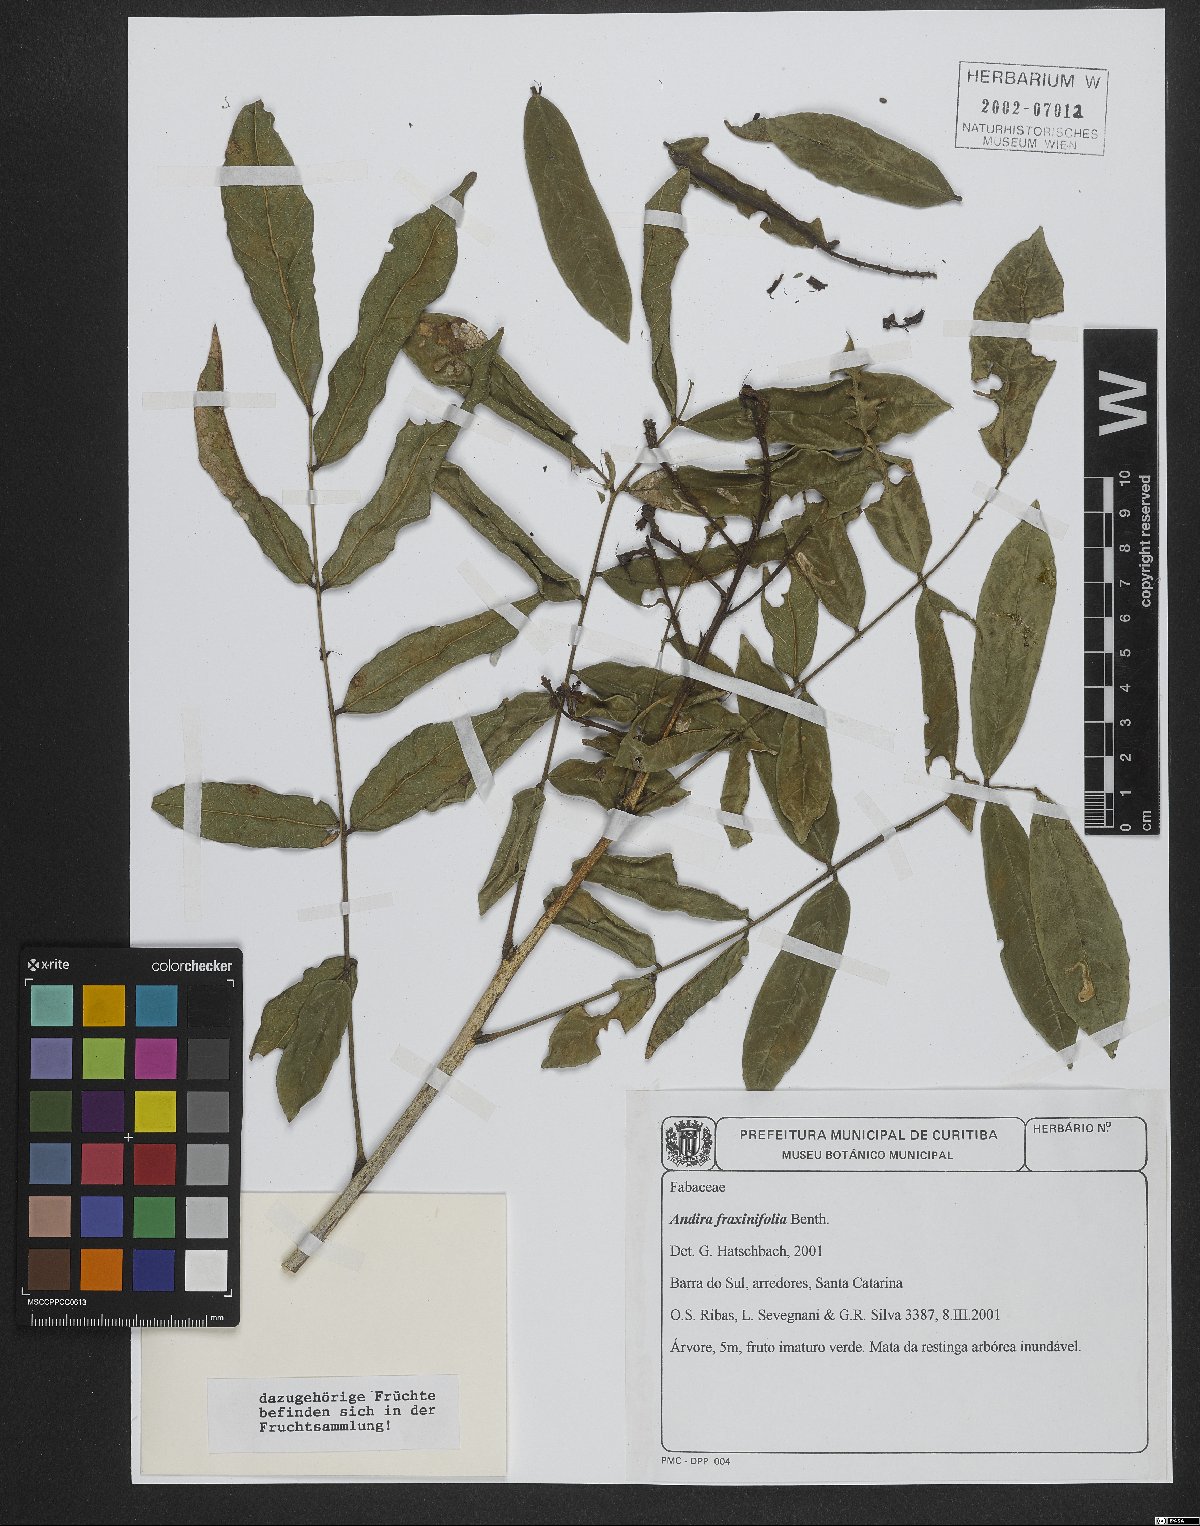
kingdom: Plantae
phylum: Tracheophyta
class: Magnoliopsida
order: Fabales
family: Fabaceae
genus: Andira
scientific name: Andira fraxinifolia
